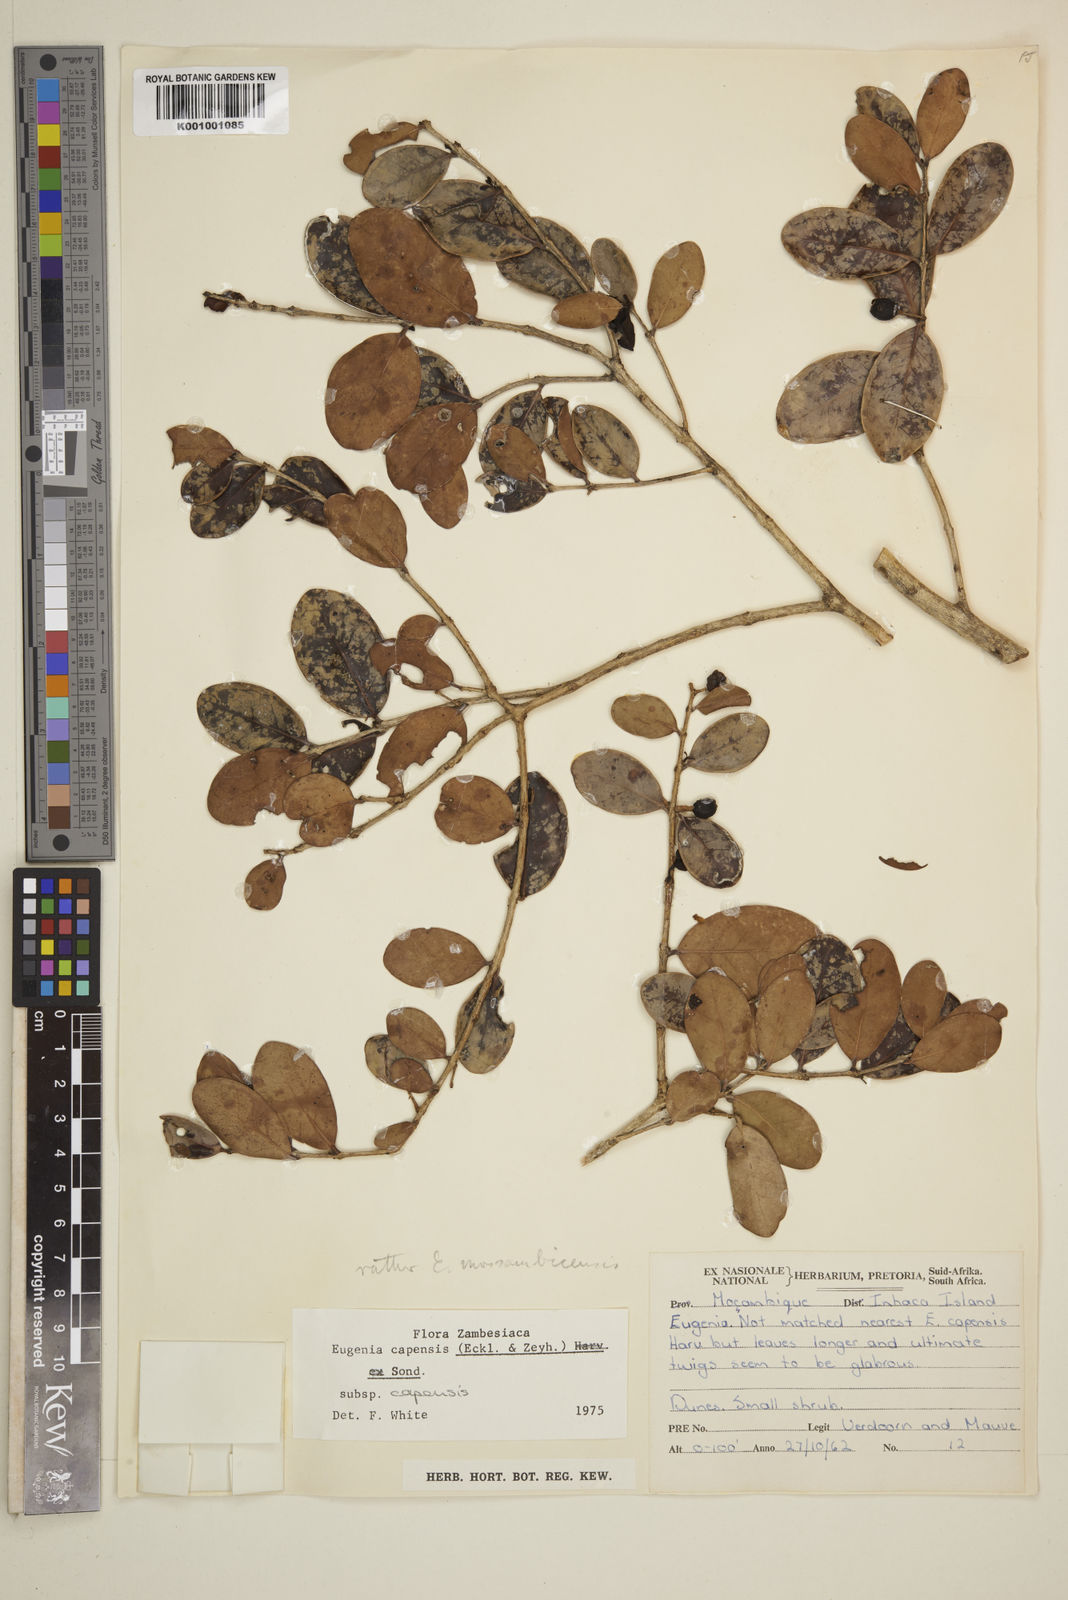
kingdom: Plantae
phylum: Tracheophyta
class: Magnoliopsida
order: Myrtales
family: Myrtaceae
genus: Eugenia
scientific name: Eugenia capensis
